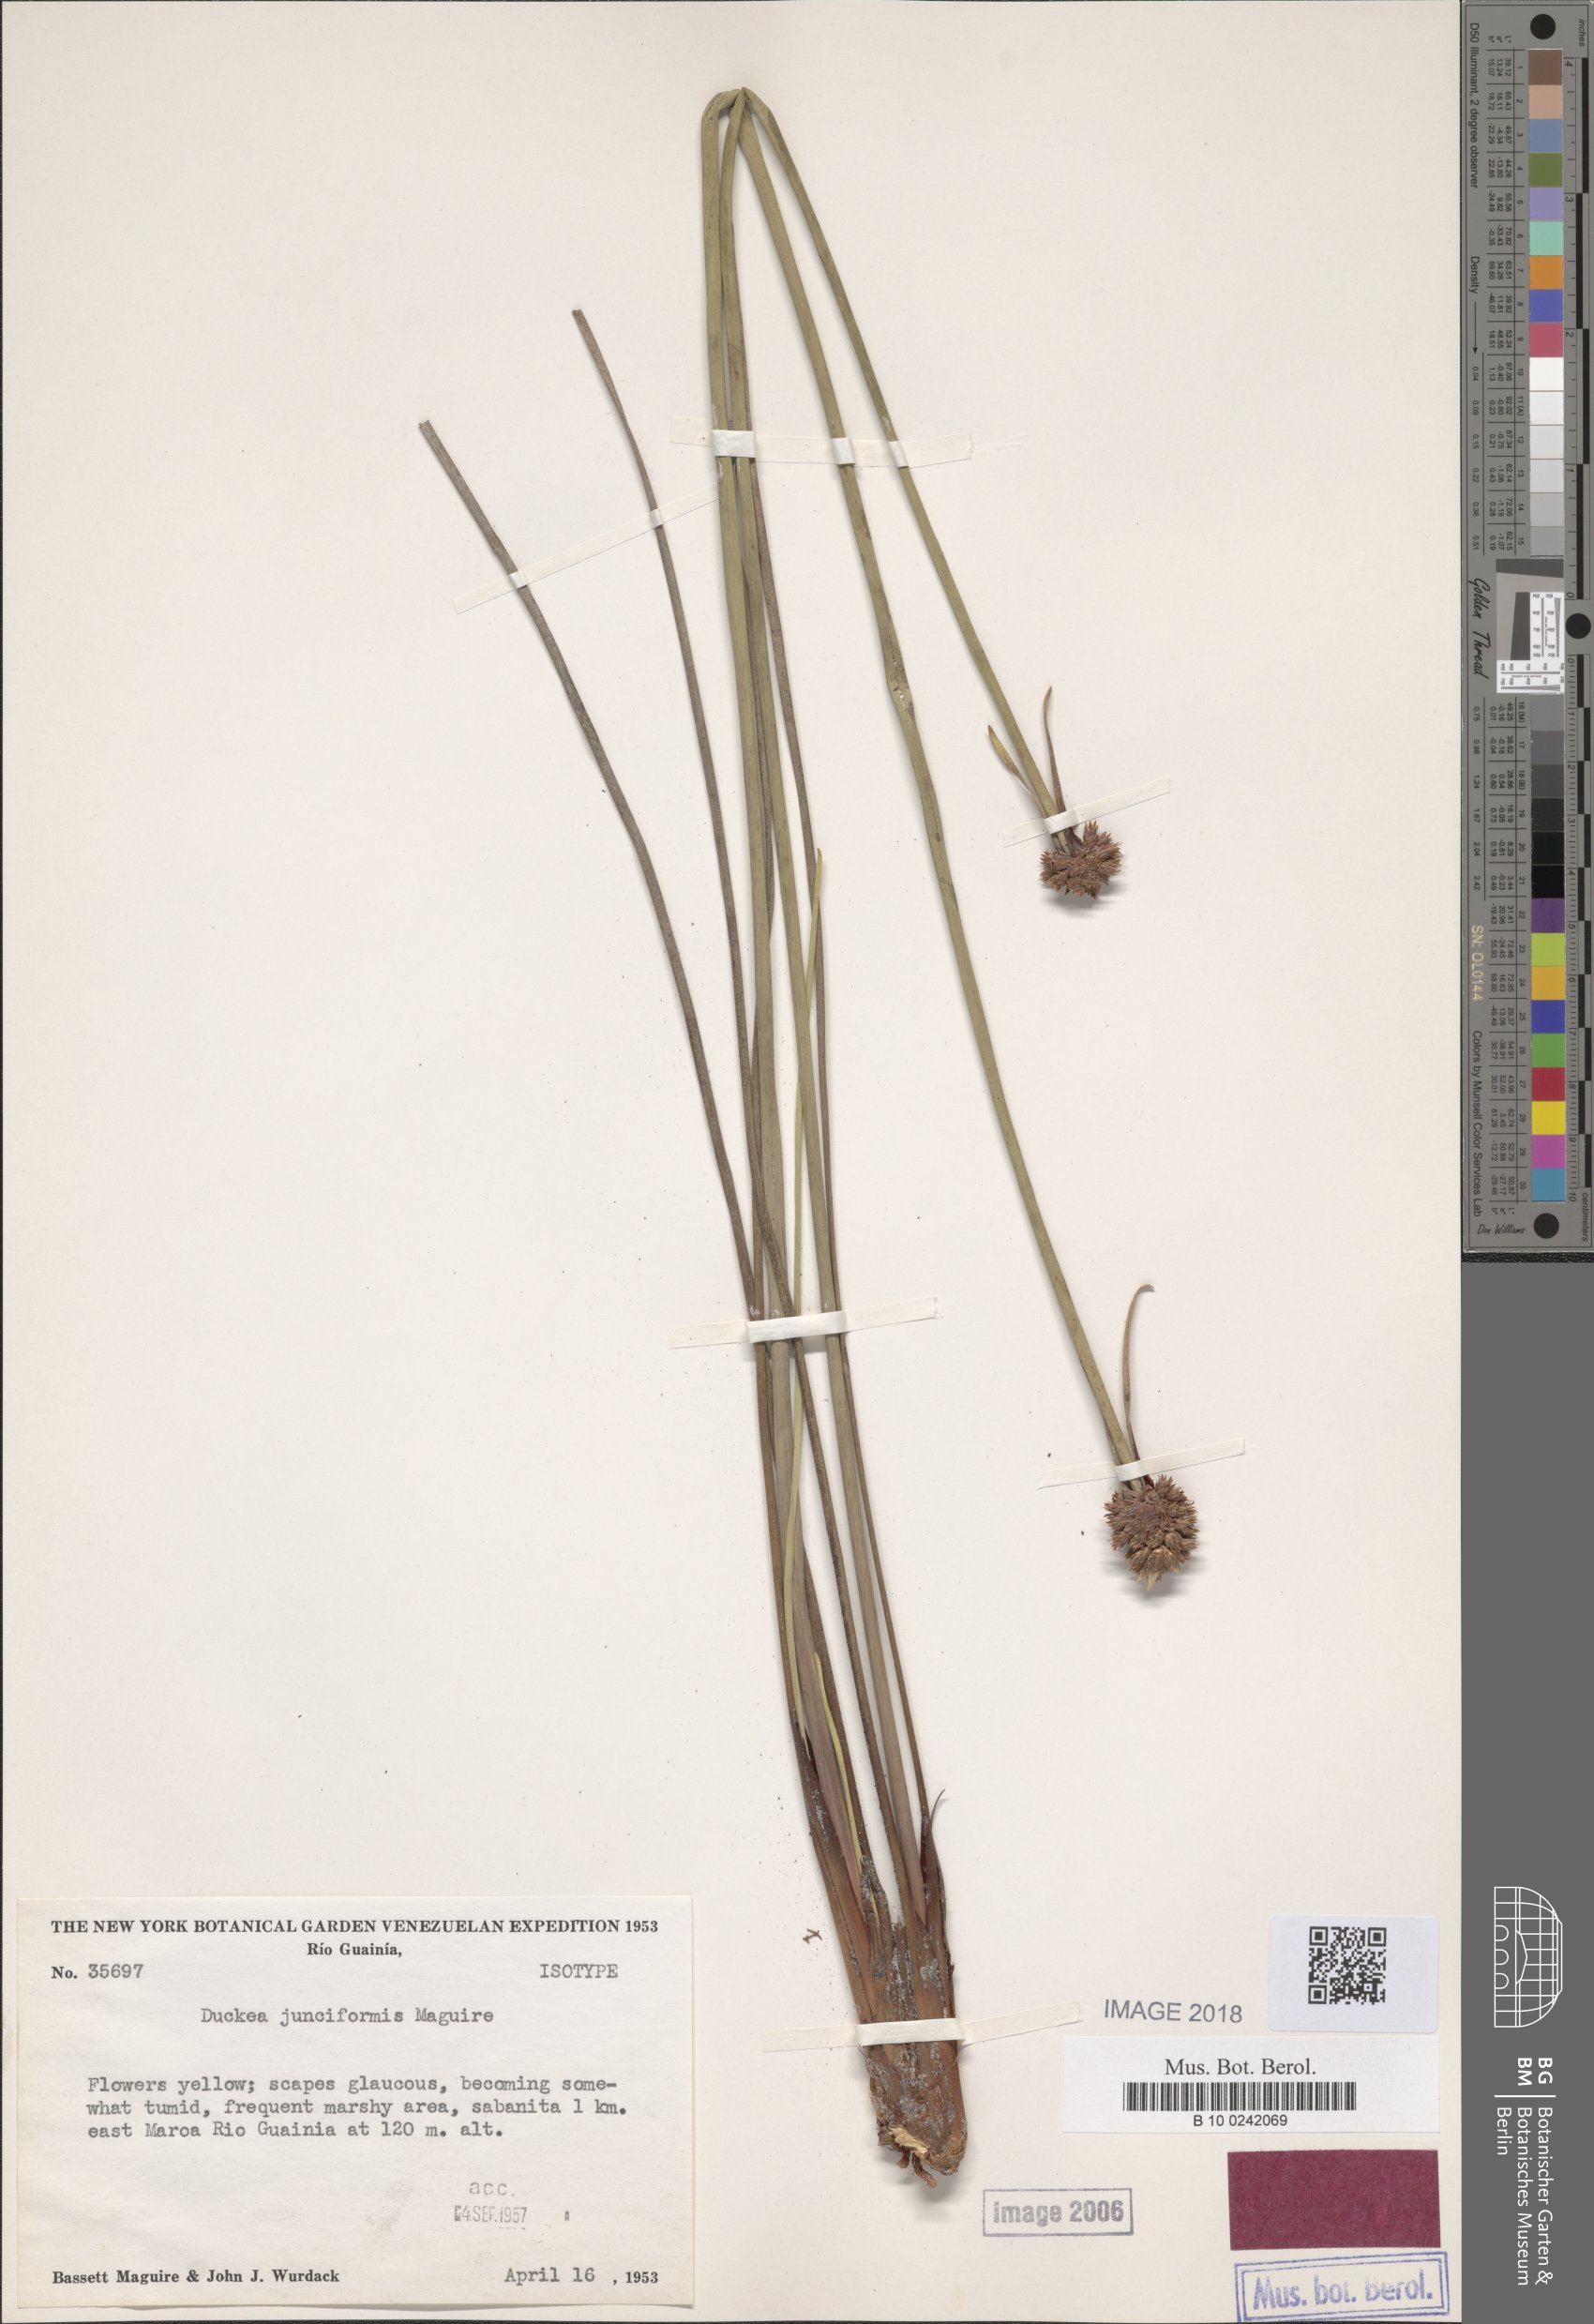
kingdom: Plantae
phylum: Tracheophyta
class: Liliopsida
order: Poales
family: Rapateaceae
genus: Duckea
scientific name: Duckea junciformis
